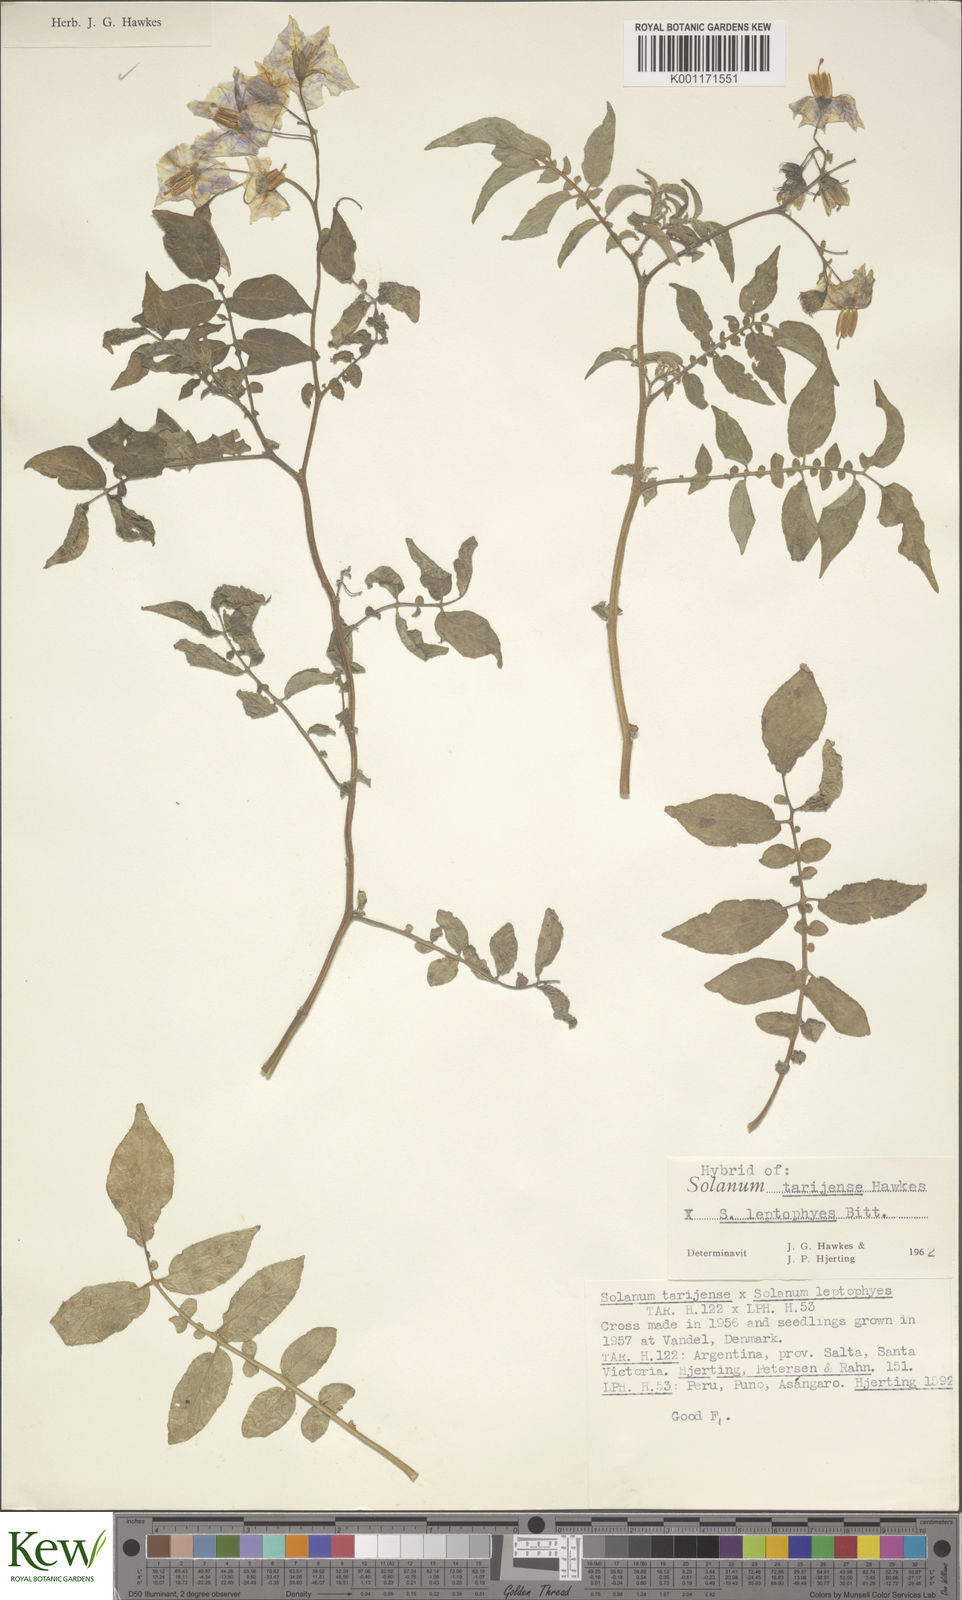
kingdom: Plantae
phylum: Tracheophyta
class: Magnoliopsida
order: Solanales
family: Solanaceae
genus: Solanum
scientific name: Solanum tarijense
